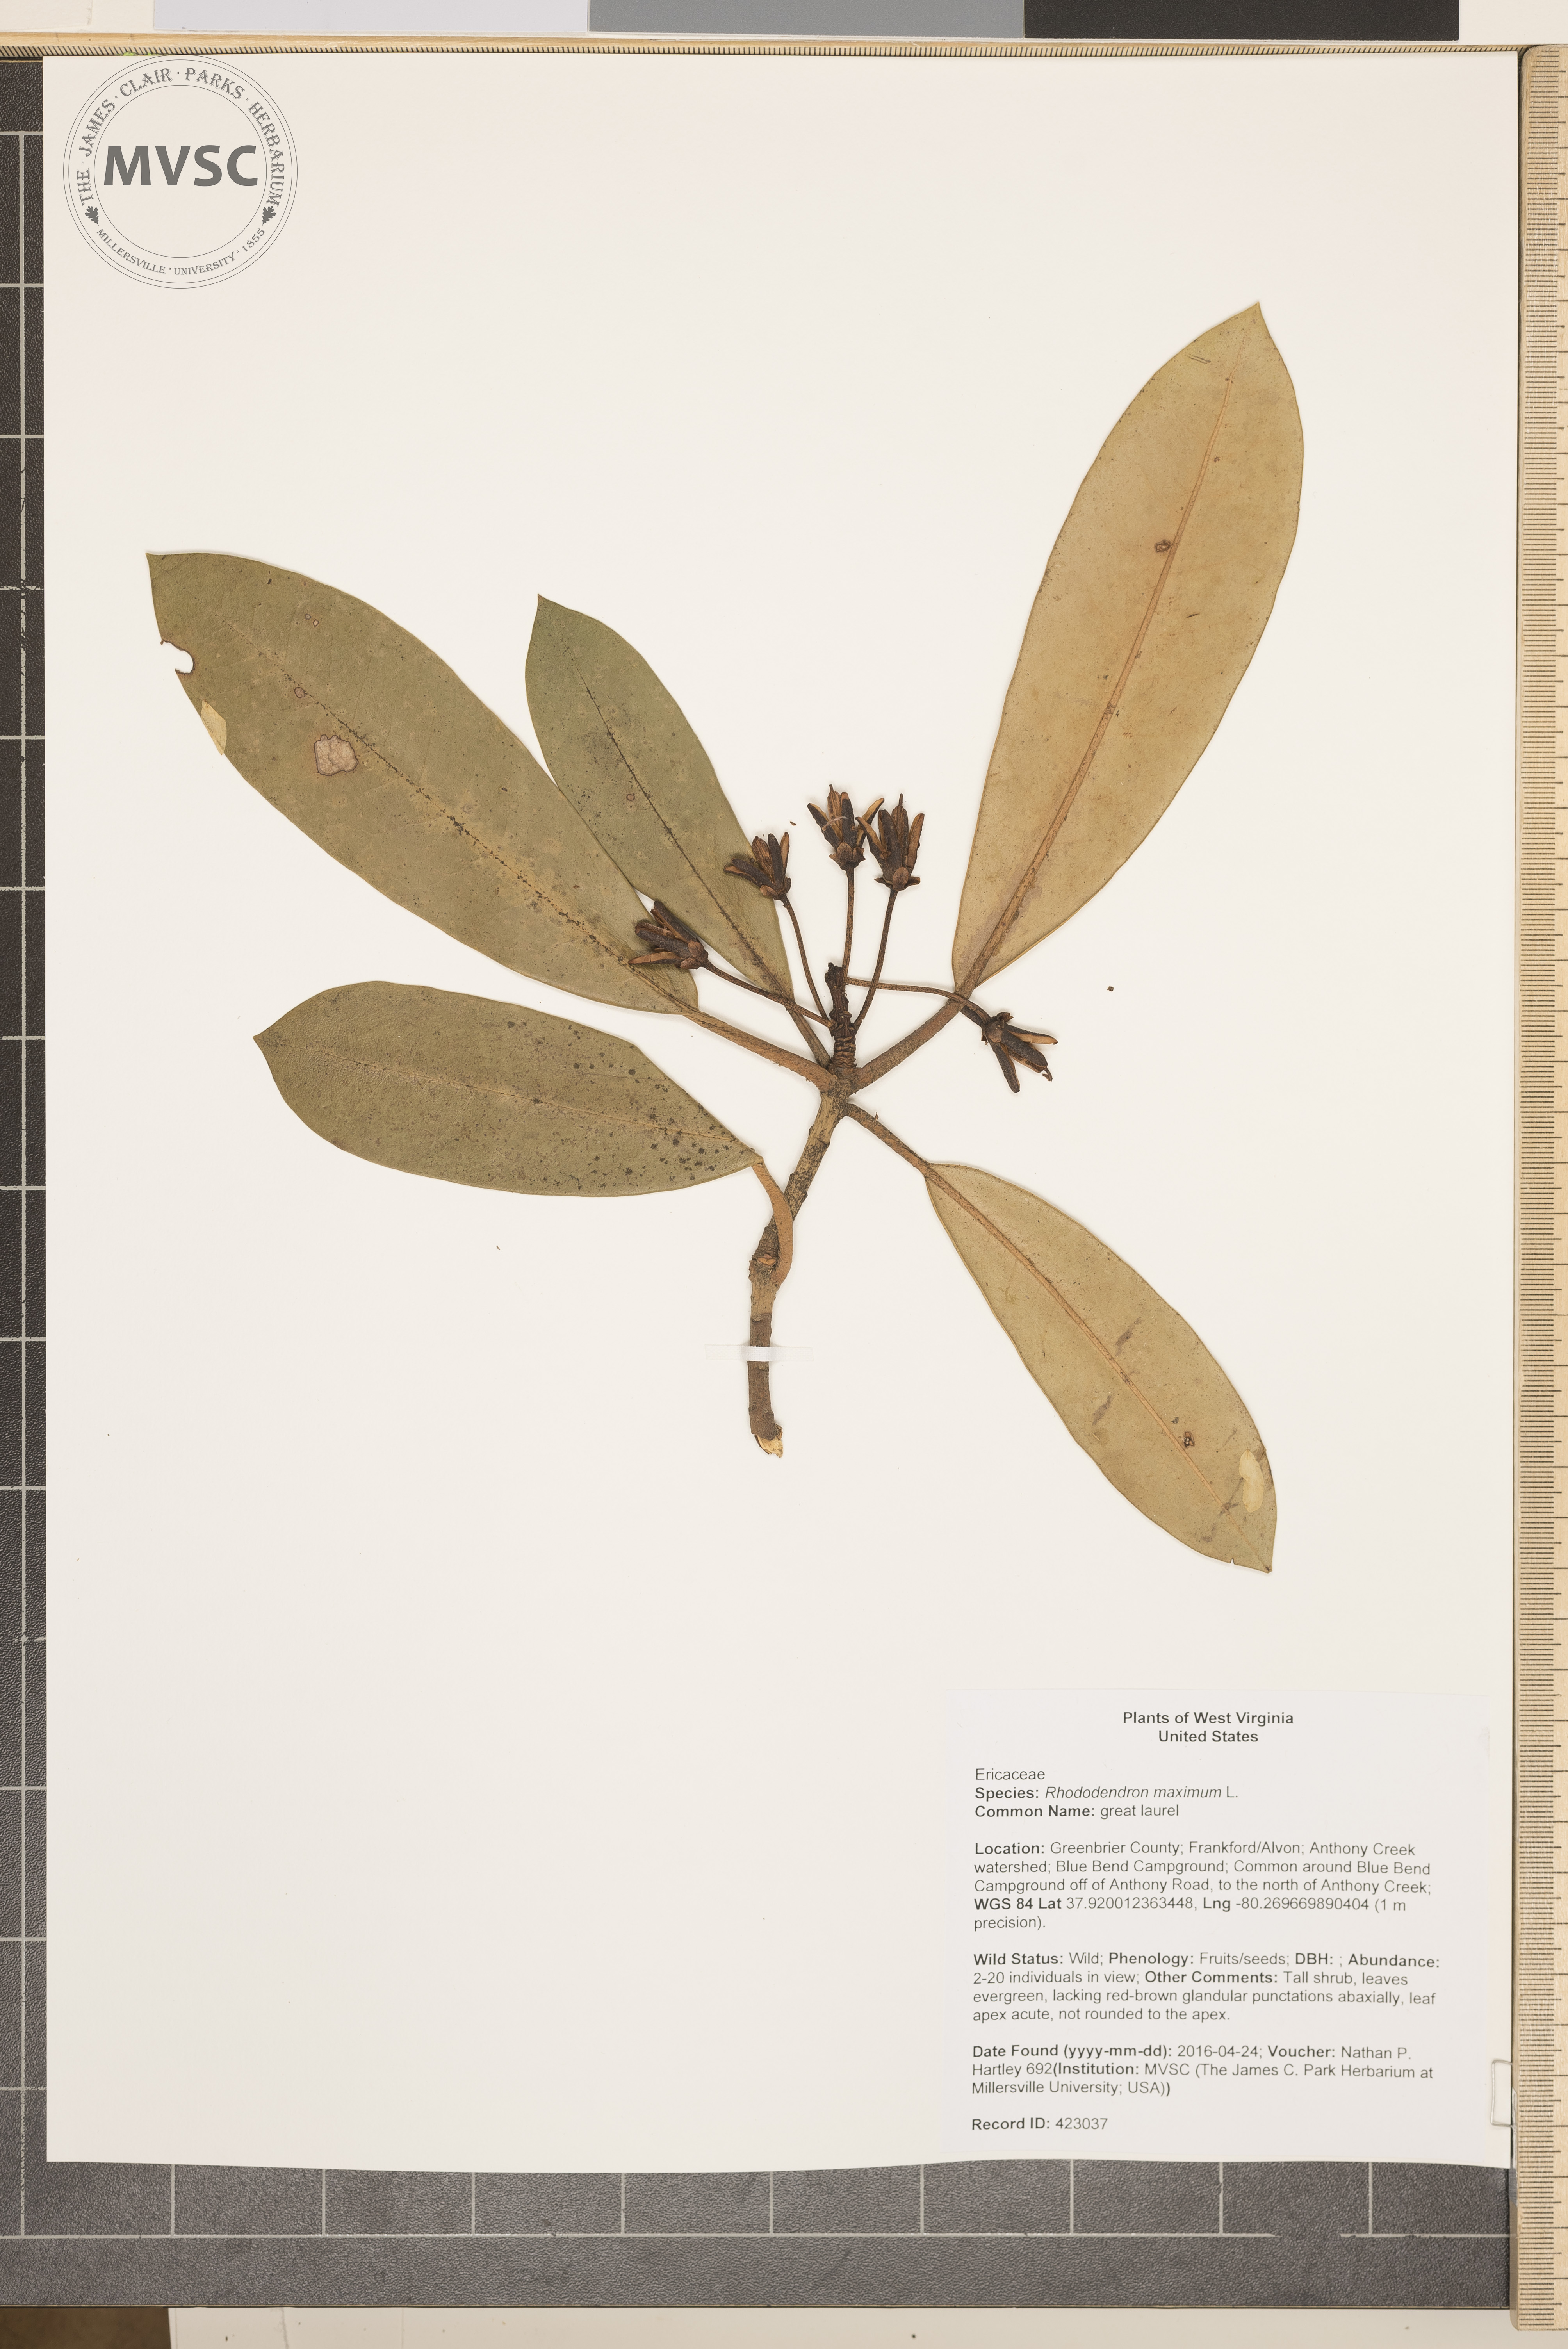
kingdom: Plantae
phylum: Tracheophyta
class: Magnoliopsida
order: Ericales
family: Ericaceae
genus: Rhododendron
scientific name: Rhododendron maximum
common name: great laurel
